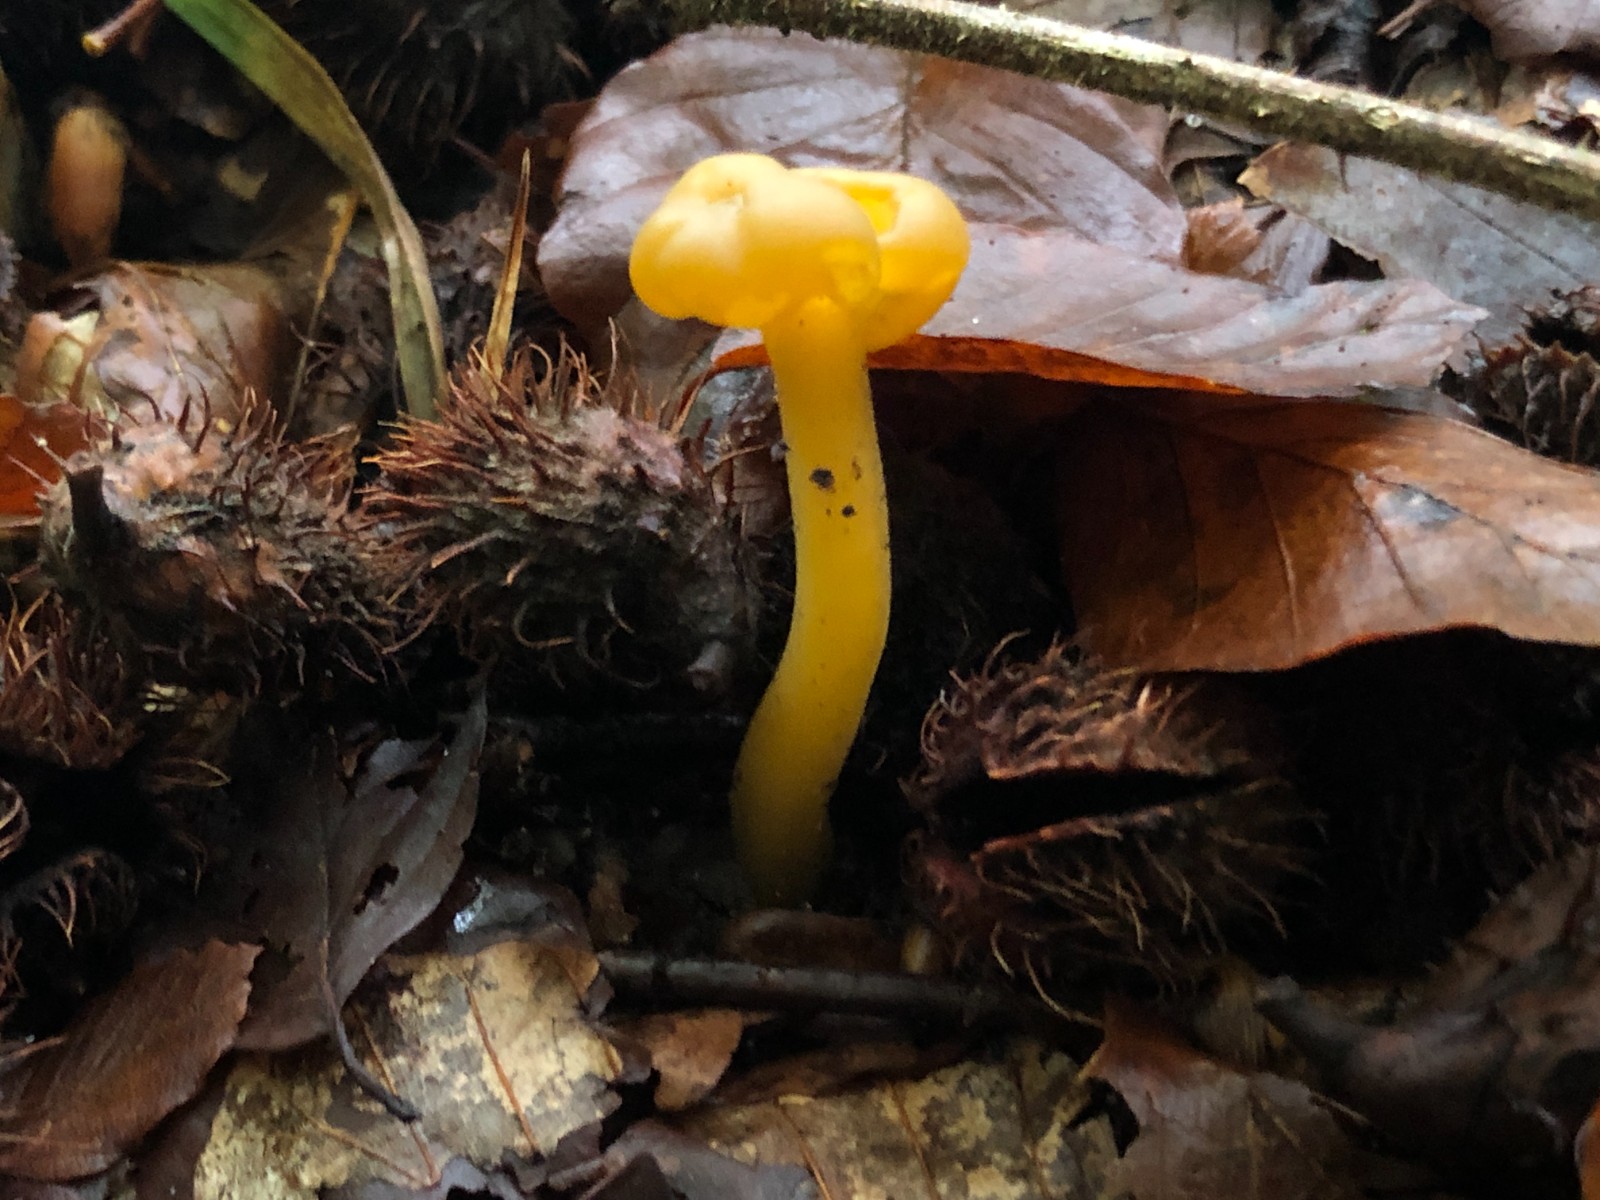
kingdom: Fungi
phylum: Ascomycota
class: Leotiomycetes
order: Leotiales
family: Leotiaceae
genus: Leotia
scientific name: Leotia lubrica
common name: ravsvamp
